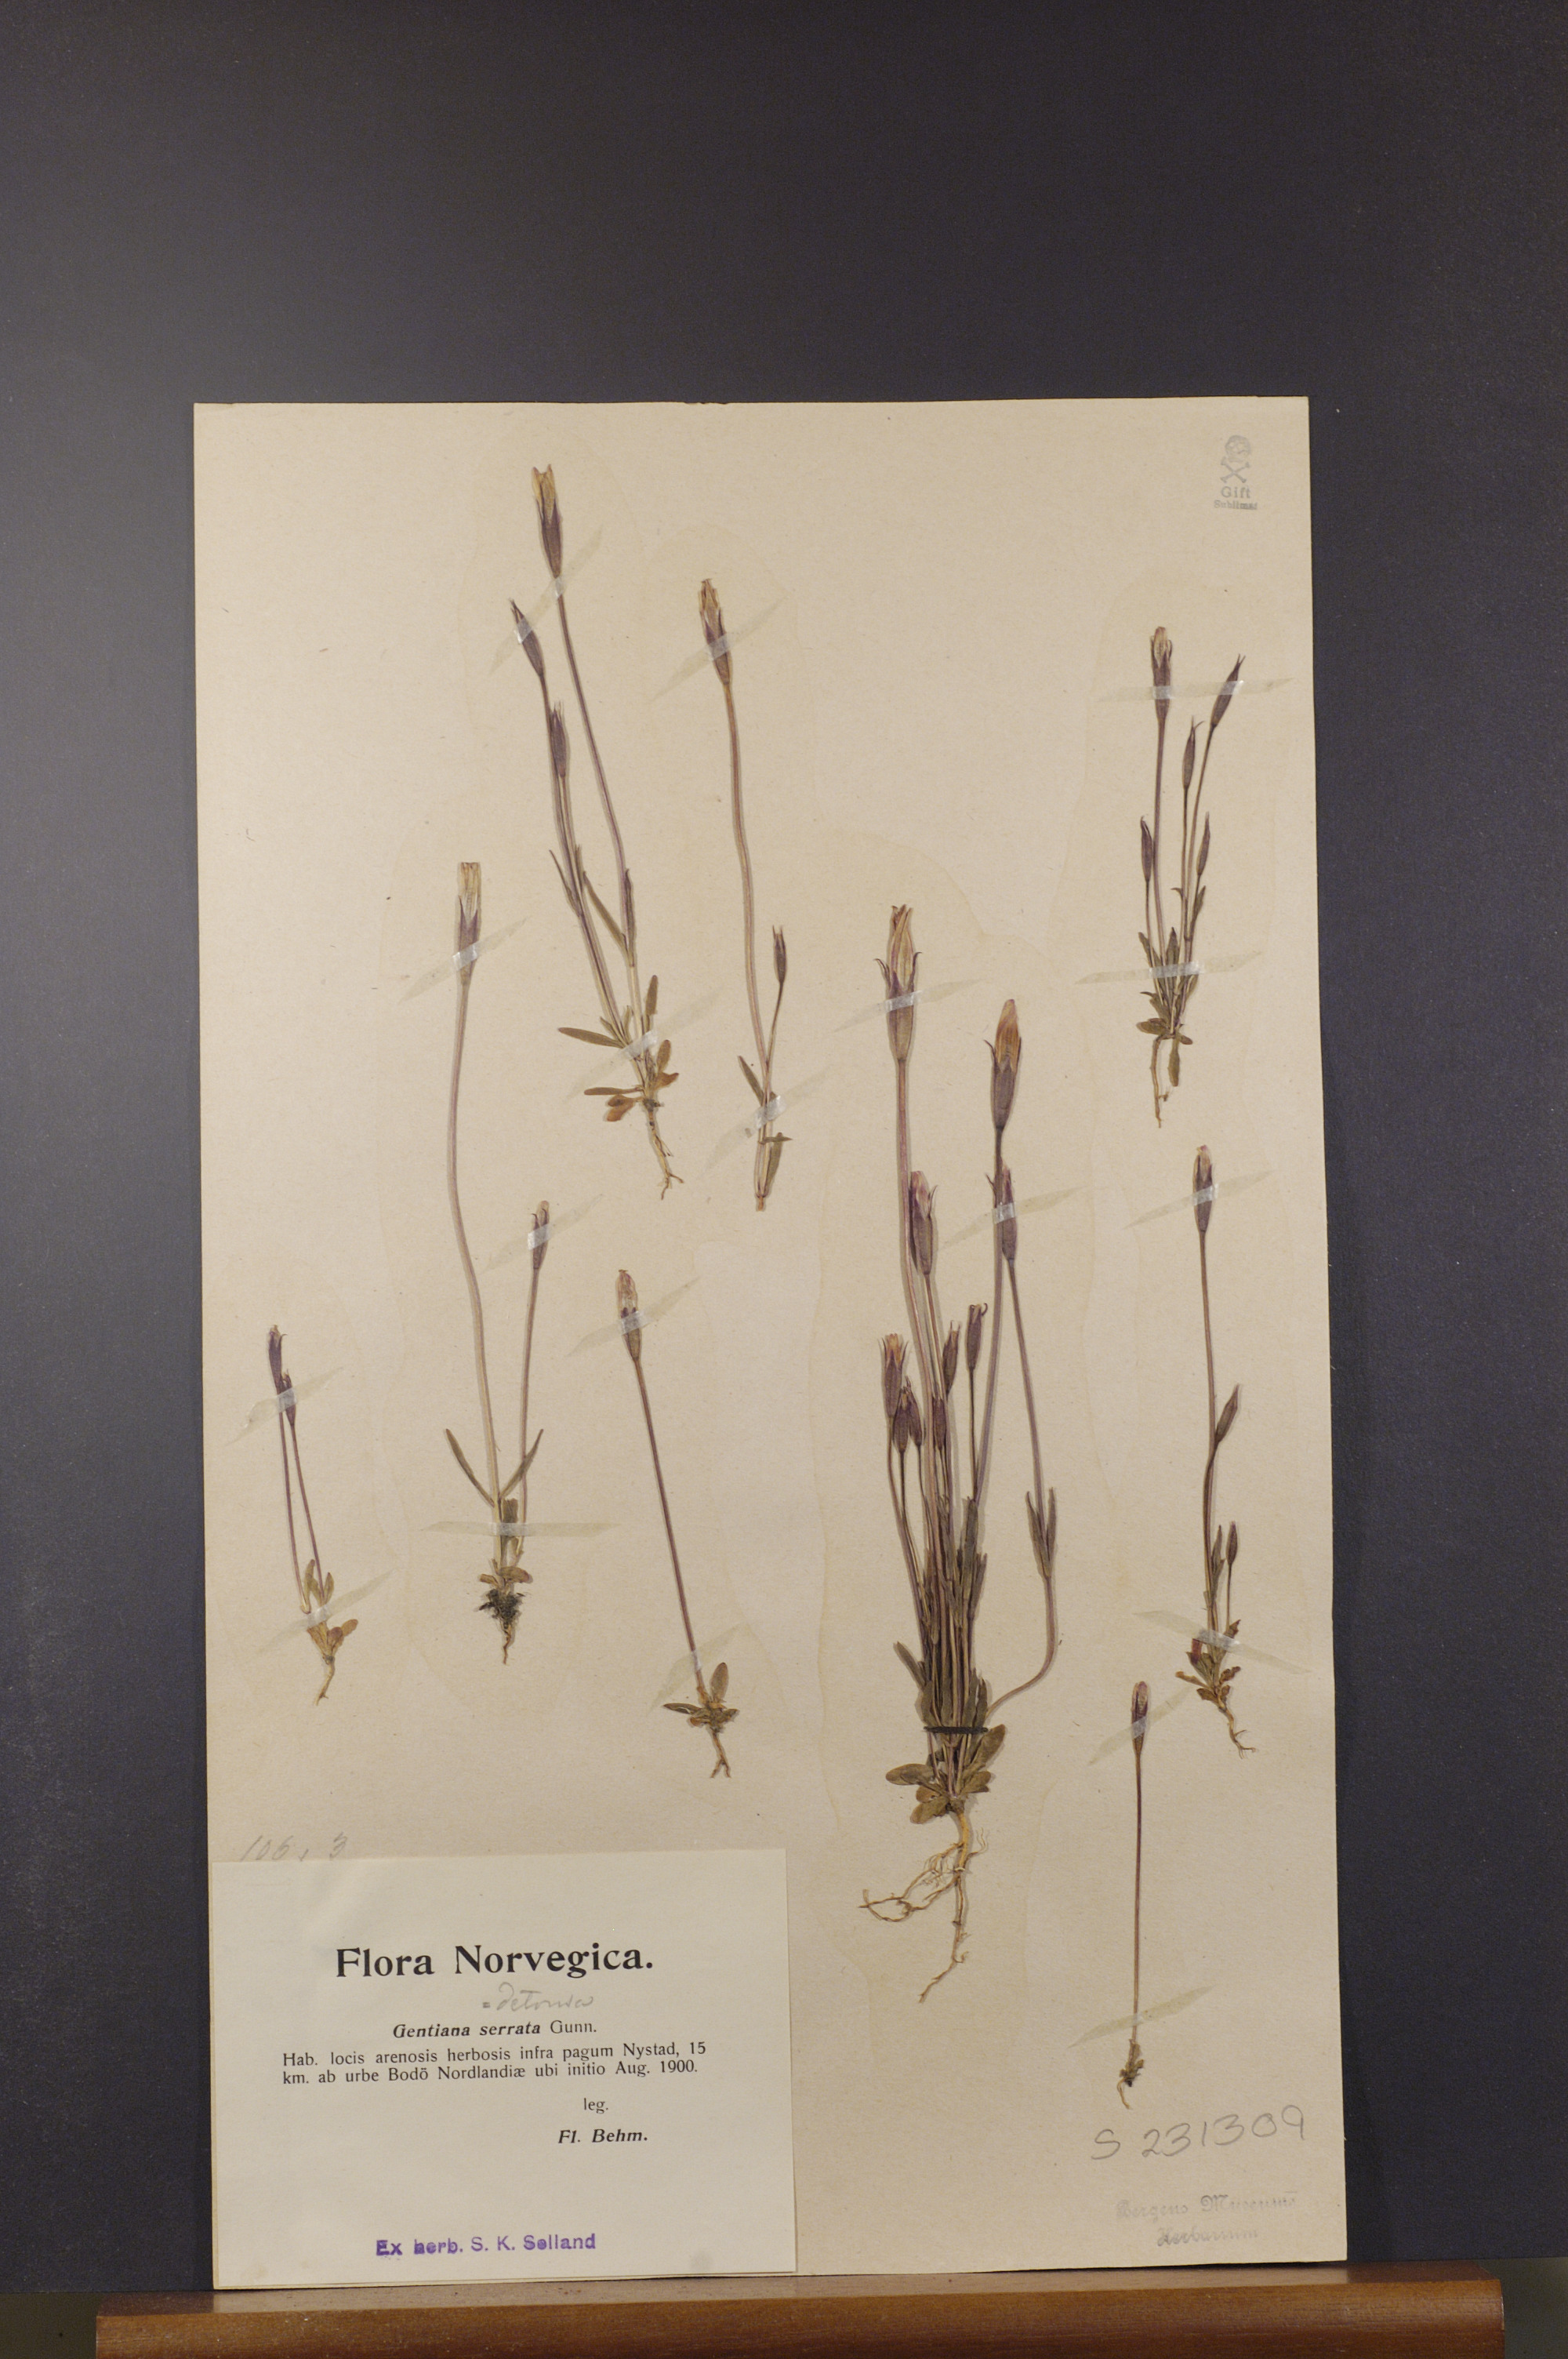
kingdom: Plantae
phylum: Tracheophyta
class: Magnoliopsida
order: Gentianales
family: Gentianaceae
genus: Gentianopsis
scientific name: Gentianopsis detonsa
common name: Fringed-gentian
